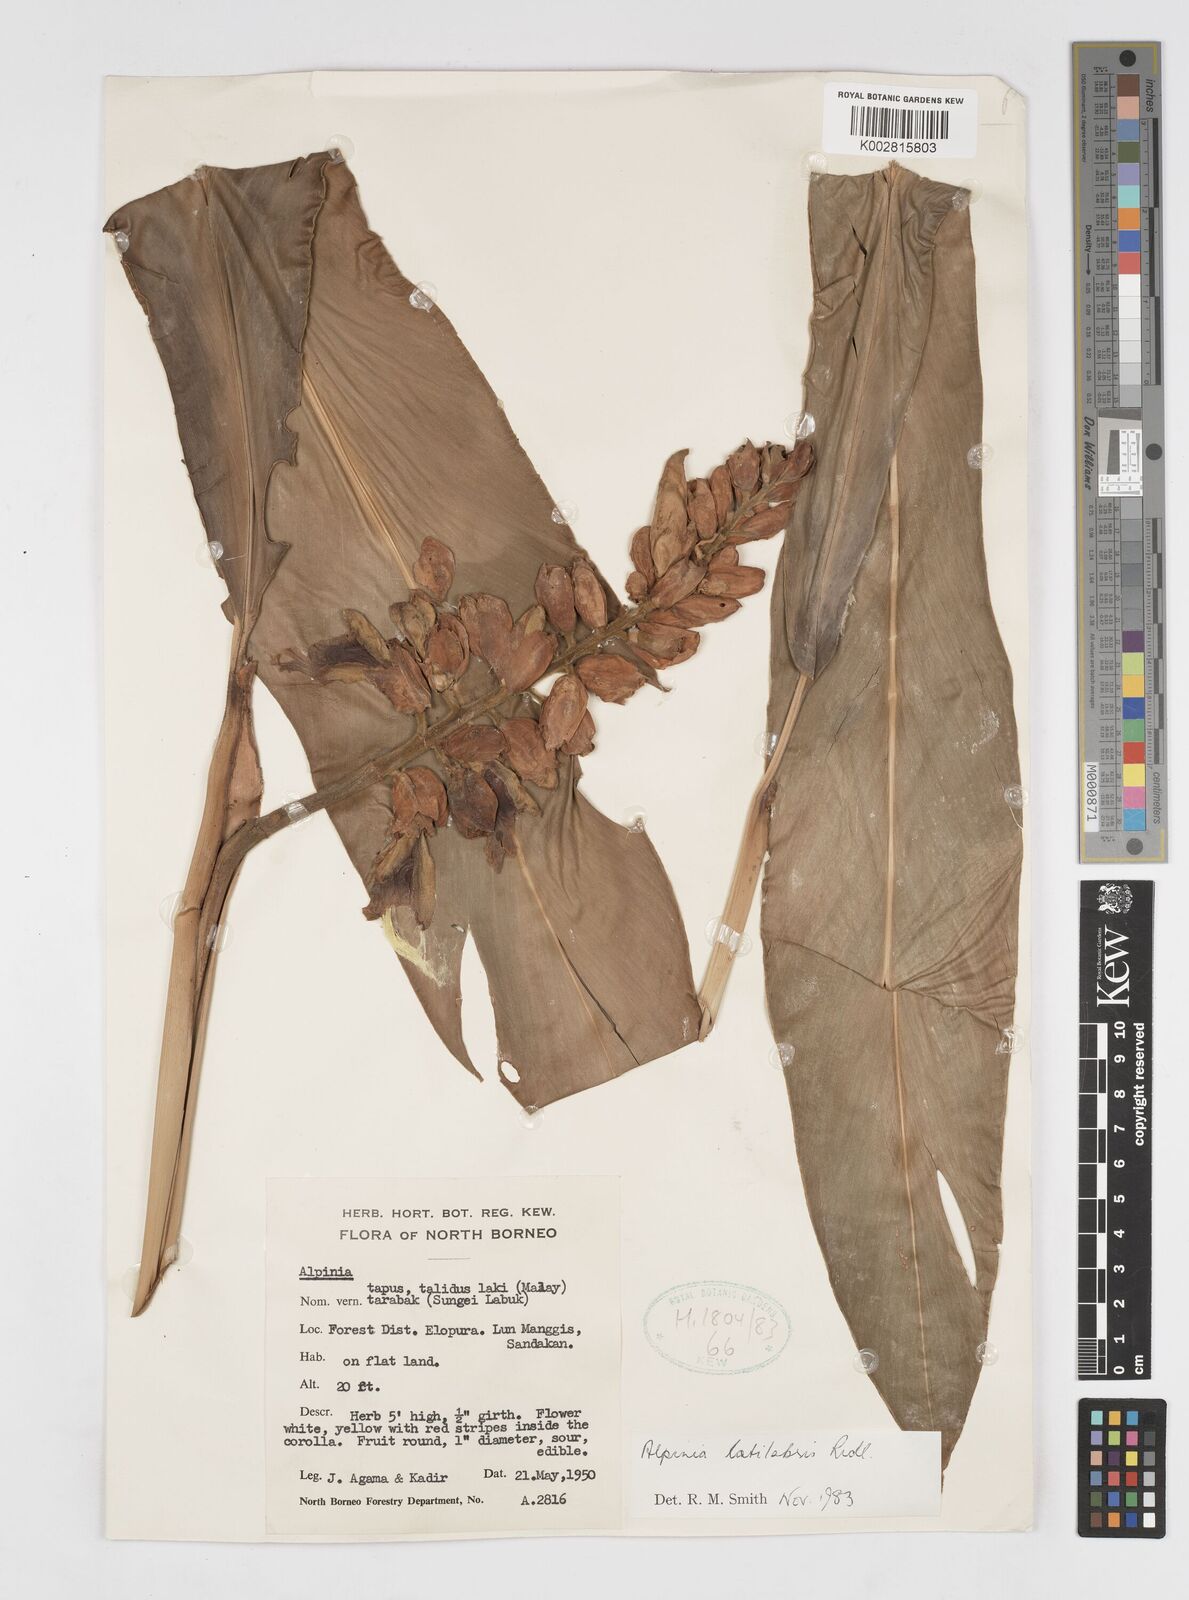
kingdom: Plantae
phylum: Tracheophyta
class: Liliopsida
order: Zingiberales
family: Zingiberaceae
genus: Alpinia
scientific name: Alpinia latilabris
